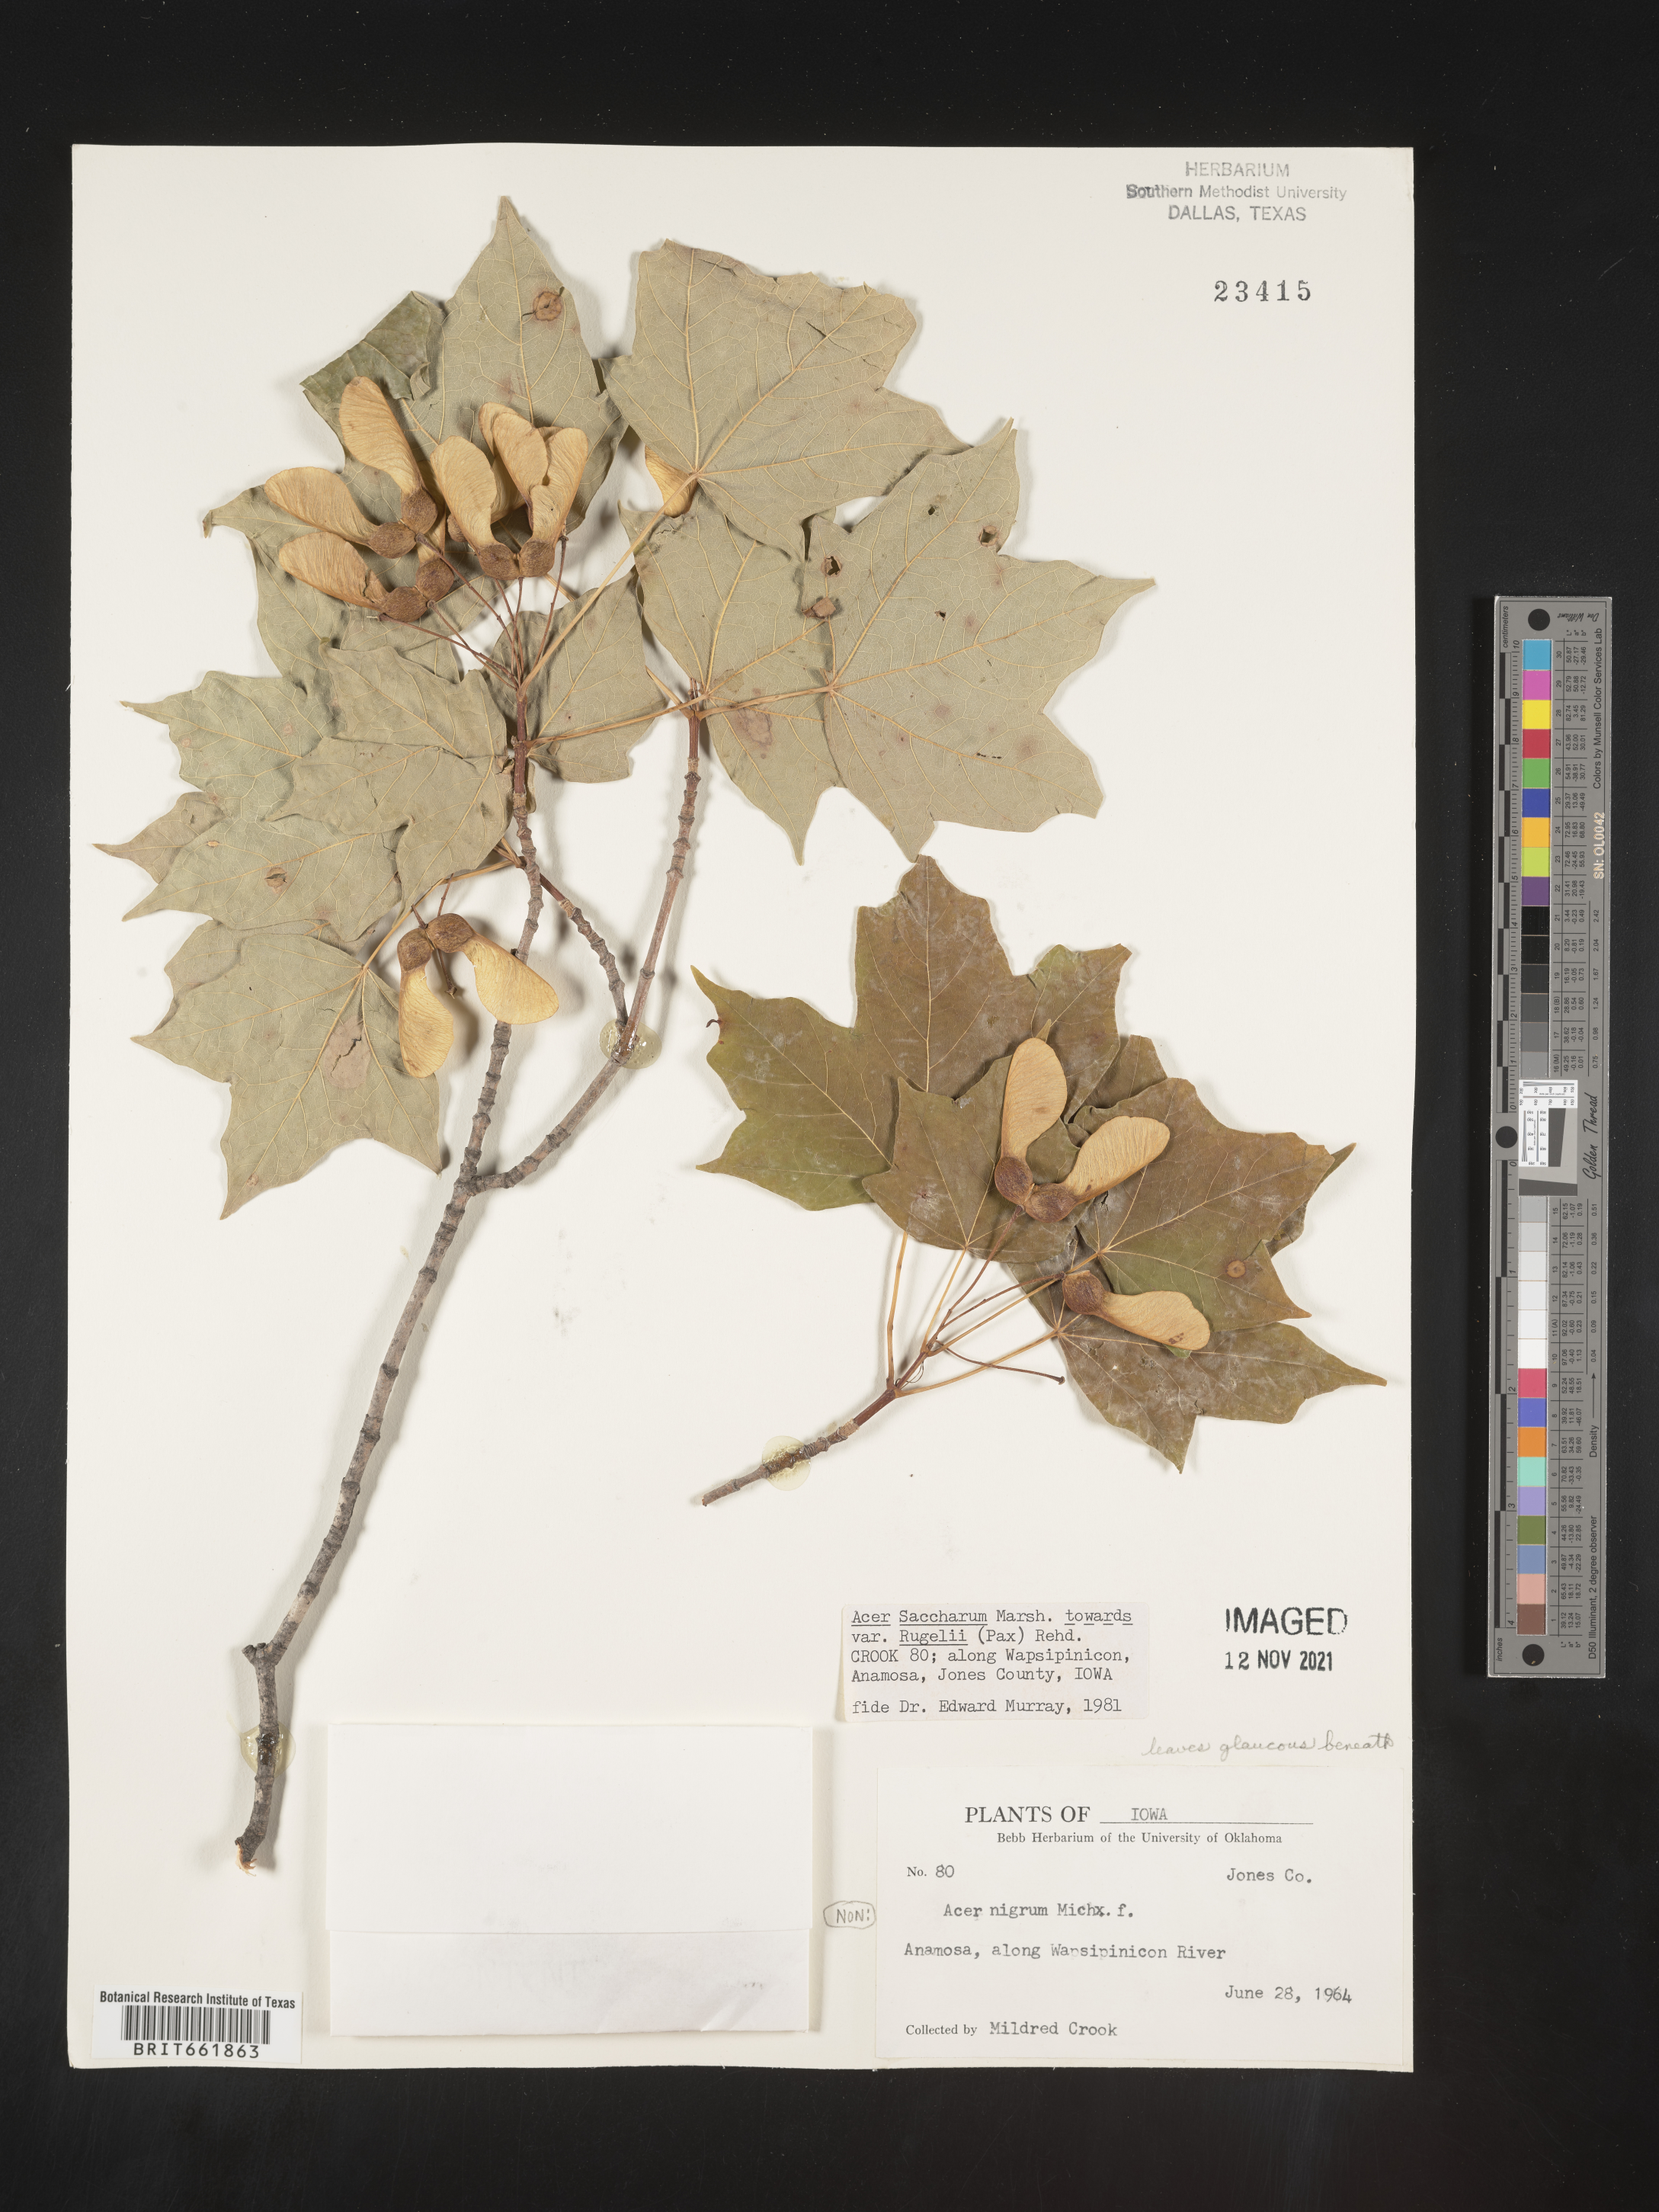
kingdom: Plantae
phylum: Tracheophyta
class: Magnoliopsida
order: Sapindales
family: Sapindaceae
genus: Acer
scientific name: Acer saccharum
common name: Sugar maple
